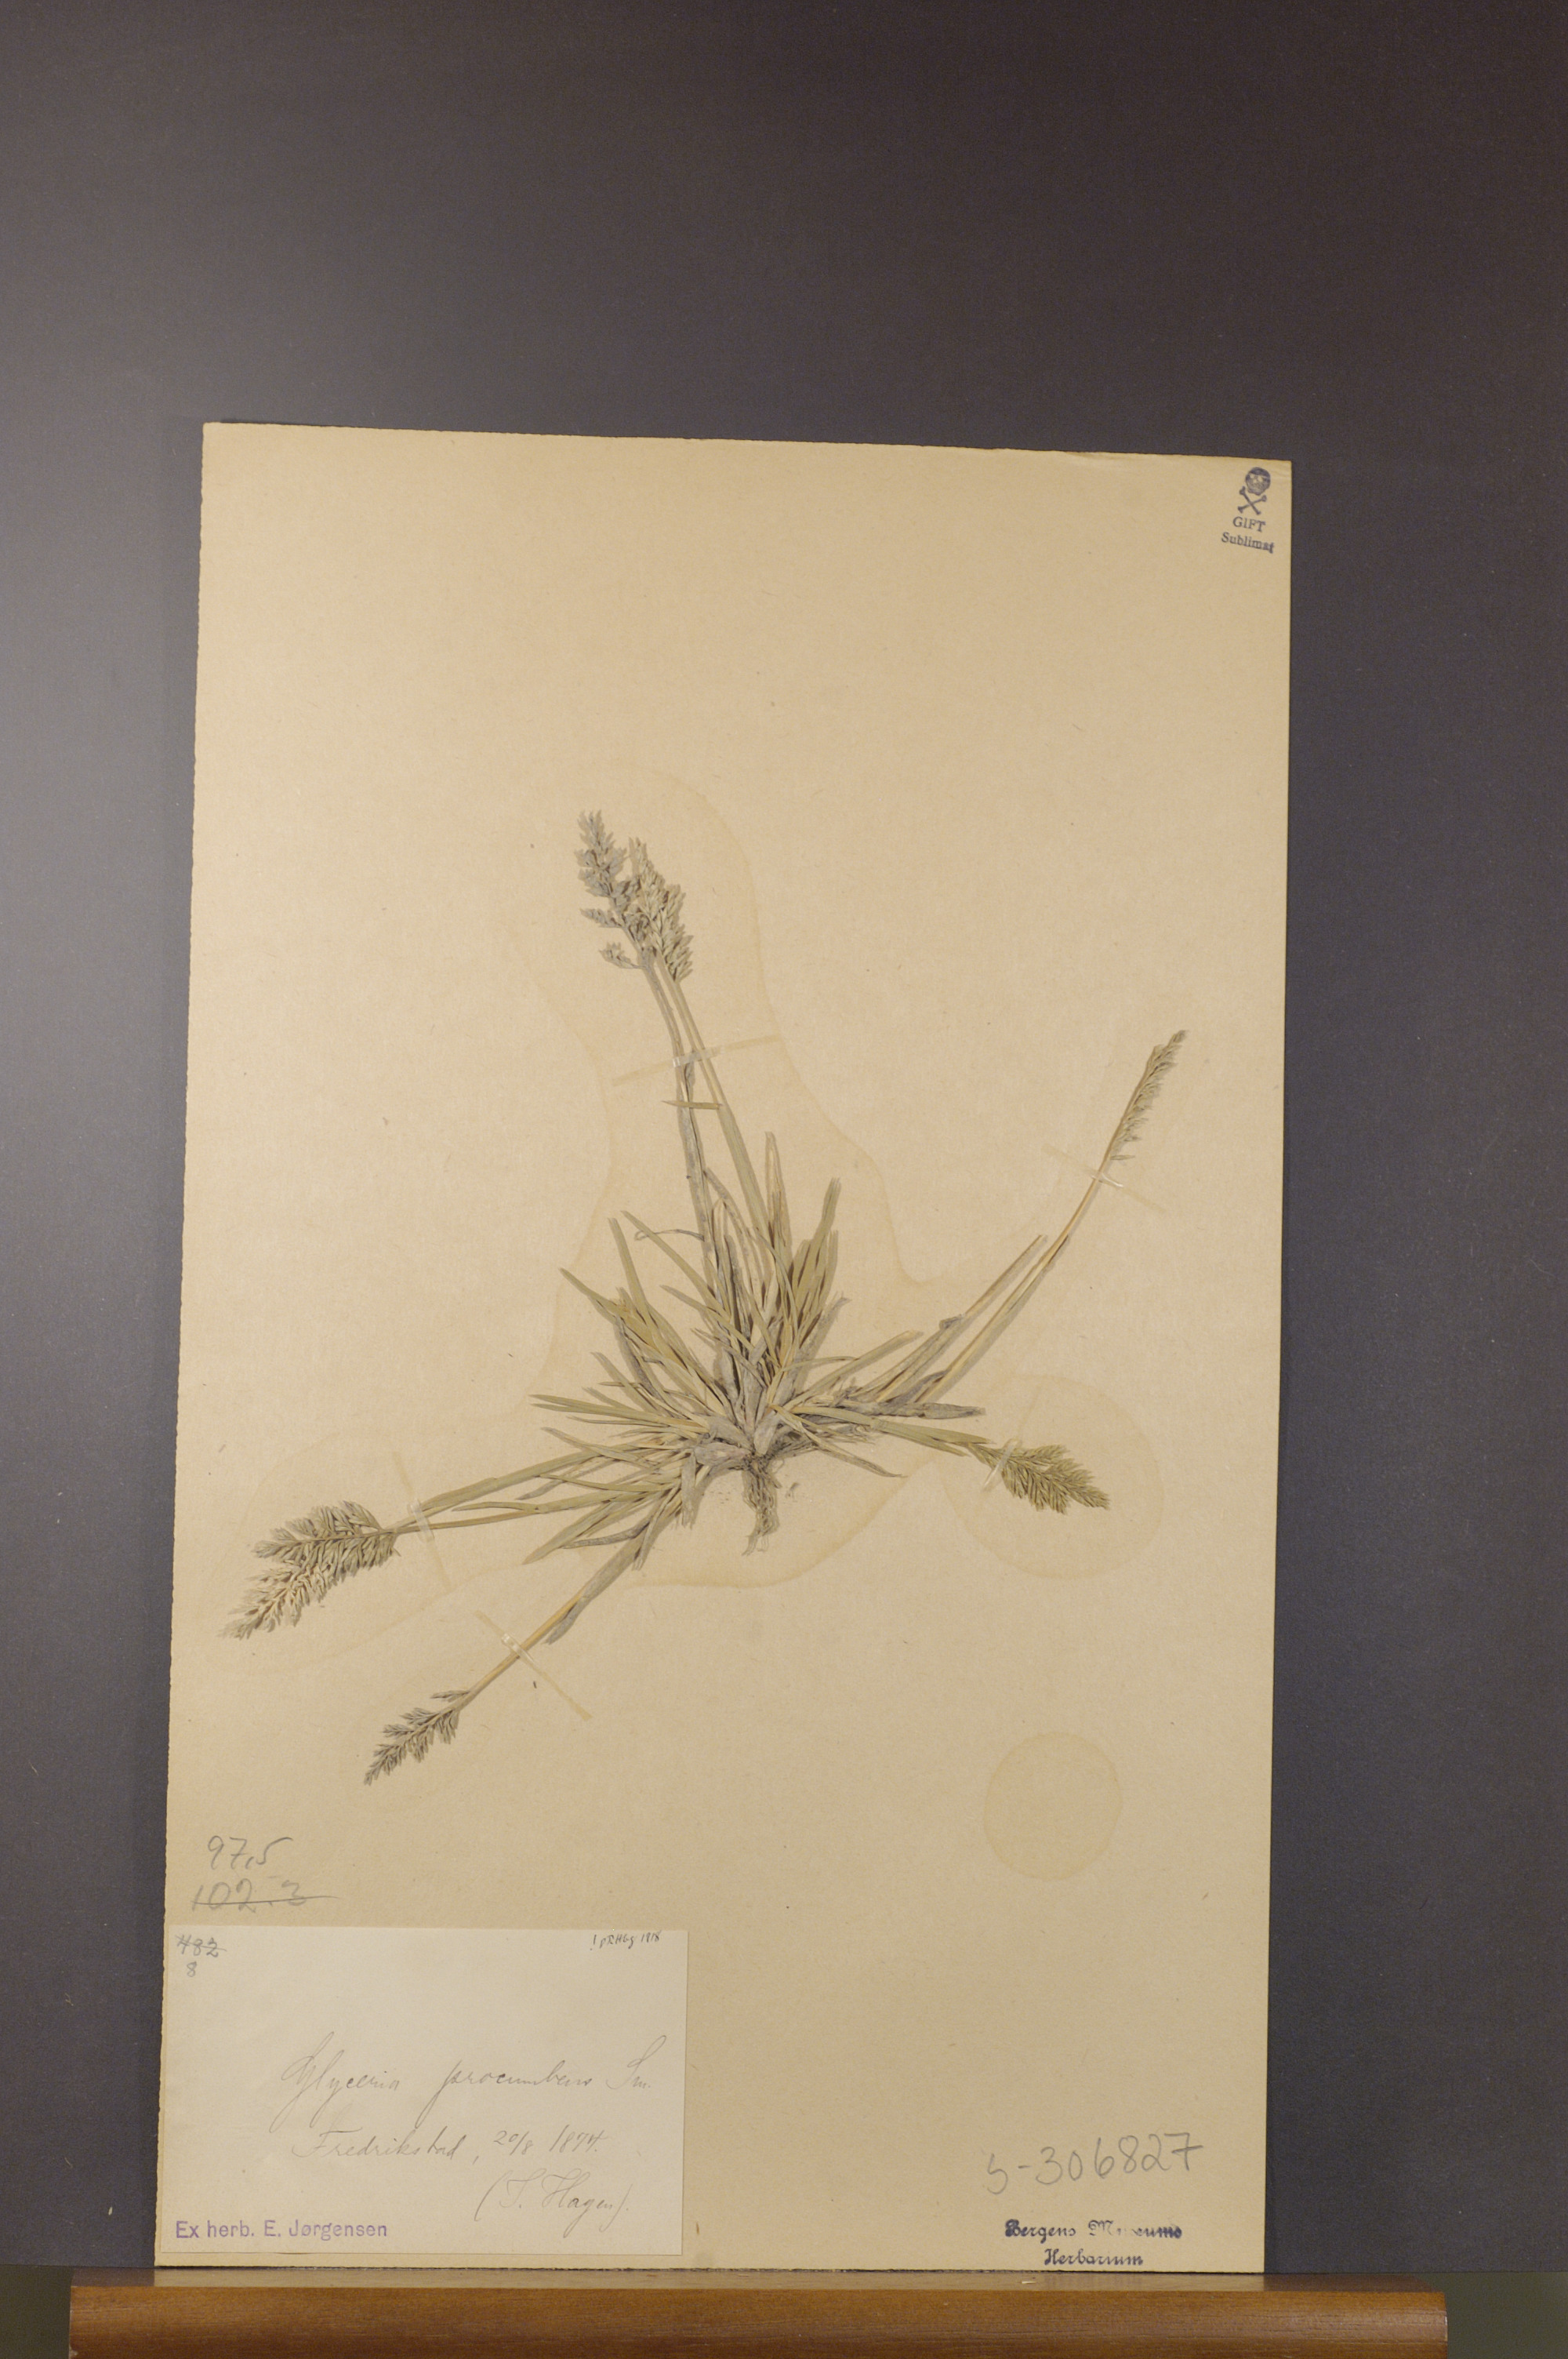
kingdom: Plantae
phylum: Tracheophyta
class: Liliopsida
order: Poales
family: Poaceae
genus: Puccinellia
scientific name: Puccinellia rupestris
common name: Stiff saltmarsh-grass
